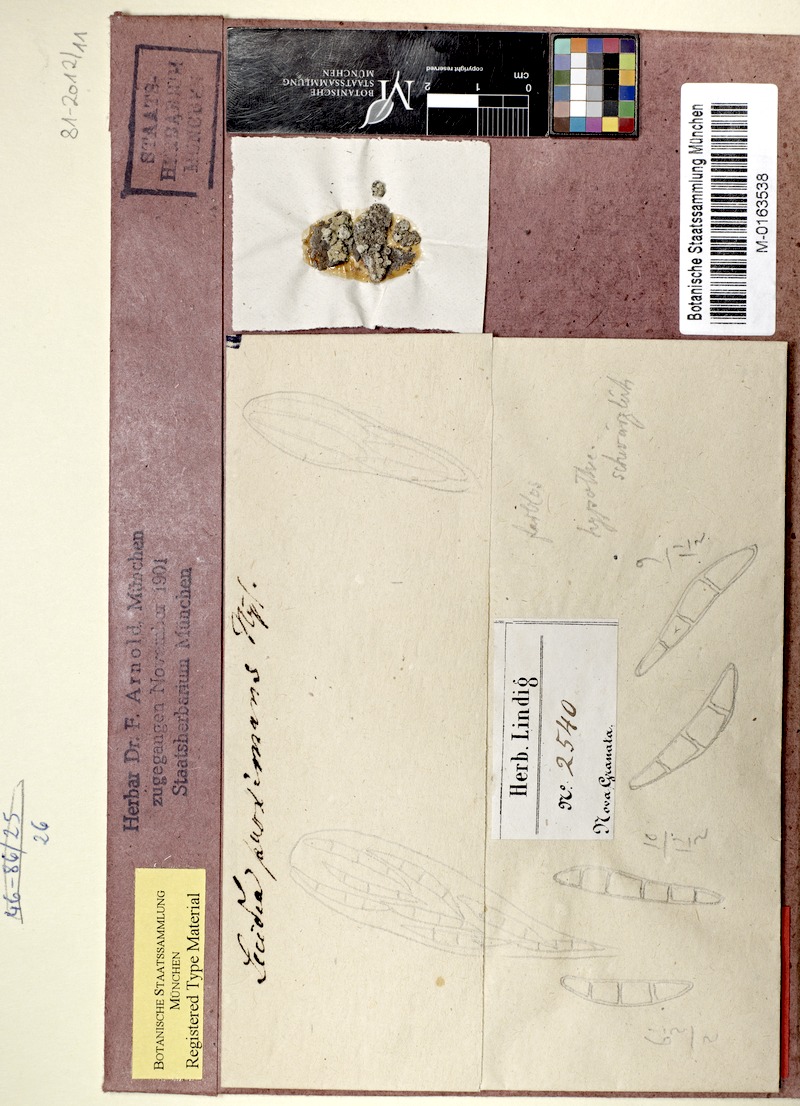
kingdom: Fungi
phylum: Ascomycota
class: Arthoniomycetes
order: Arthoniales
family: Roccellaceae
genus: Lecanactis
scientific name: Lecanactis proximans
